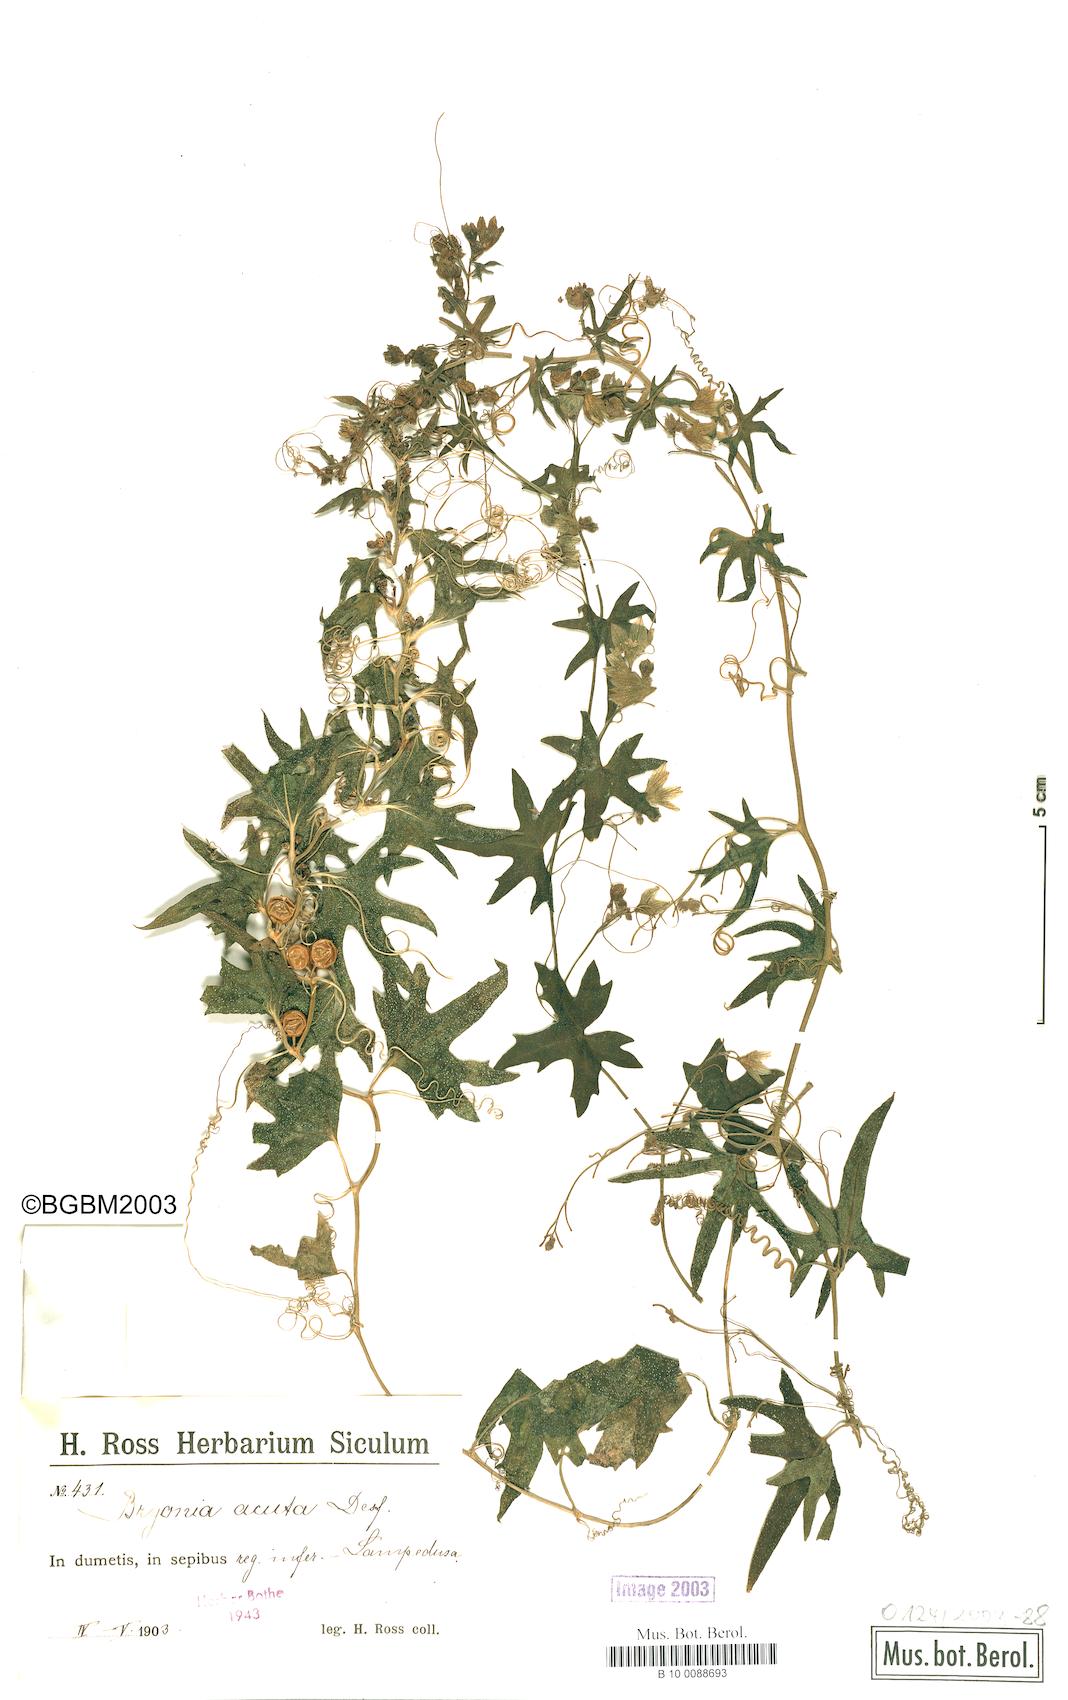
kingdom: Plantae
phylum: Tracheophyta
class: Magnoliopsida
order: Cucurbitales
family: Cucurbitaceae
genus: Bryonia
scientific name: Bryonia acutangula
